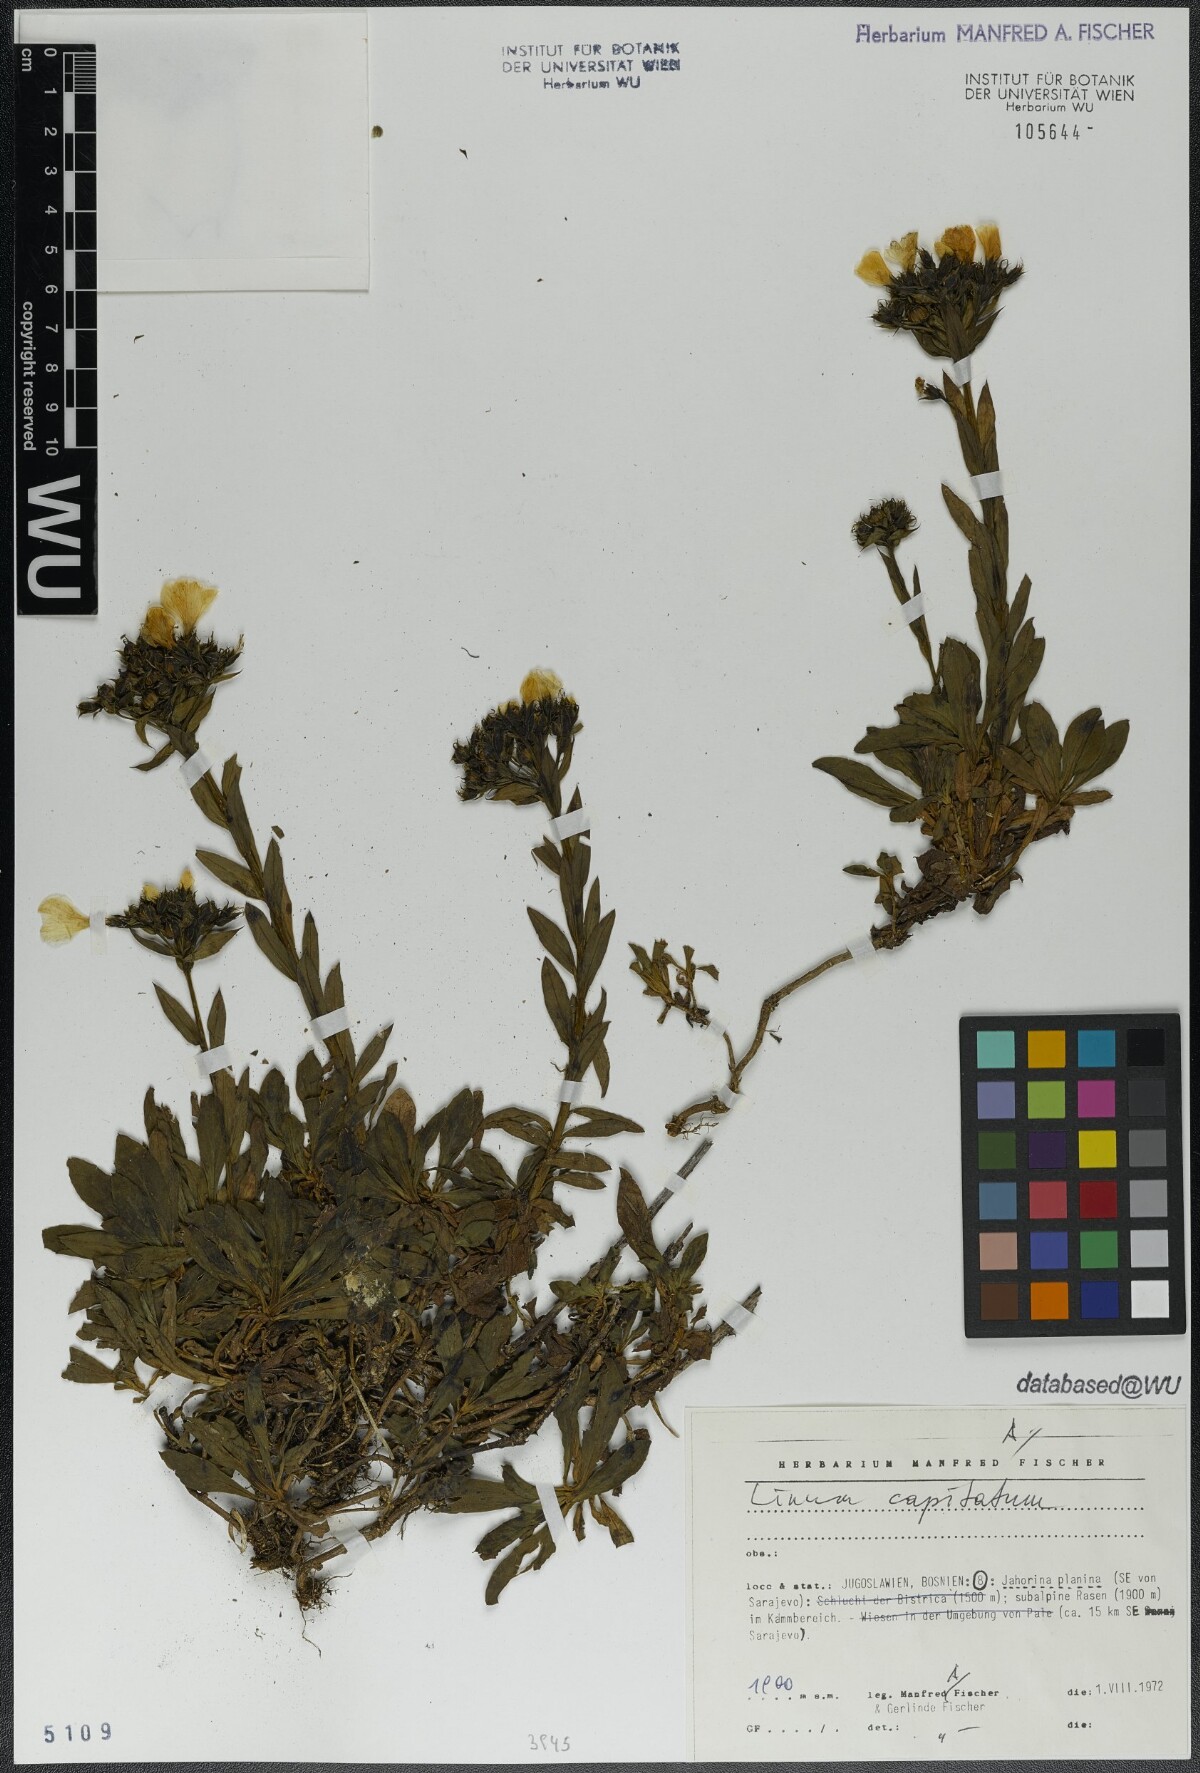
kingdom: Plantae
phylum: Tracheophyta
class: Magnoliopsida
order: Malpighiales
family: Linaceae
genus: Linum
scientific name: Linum capitatum
